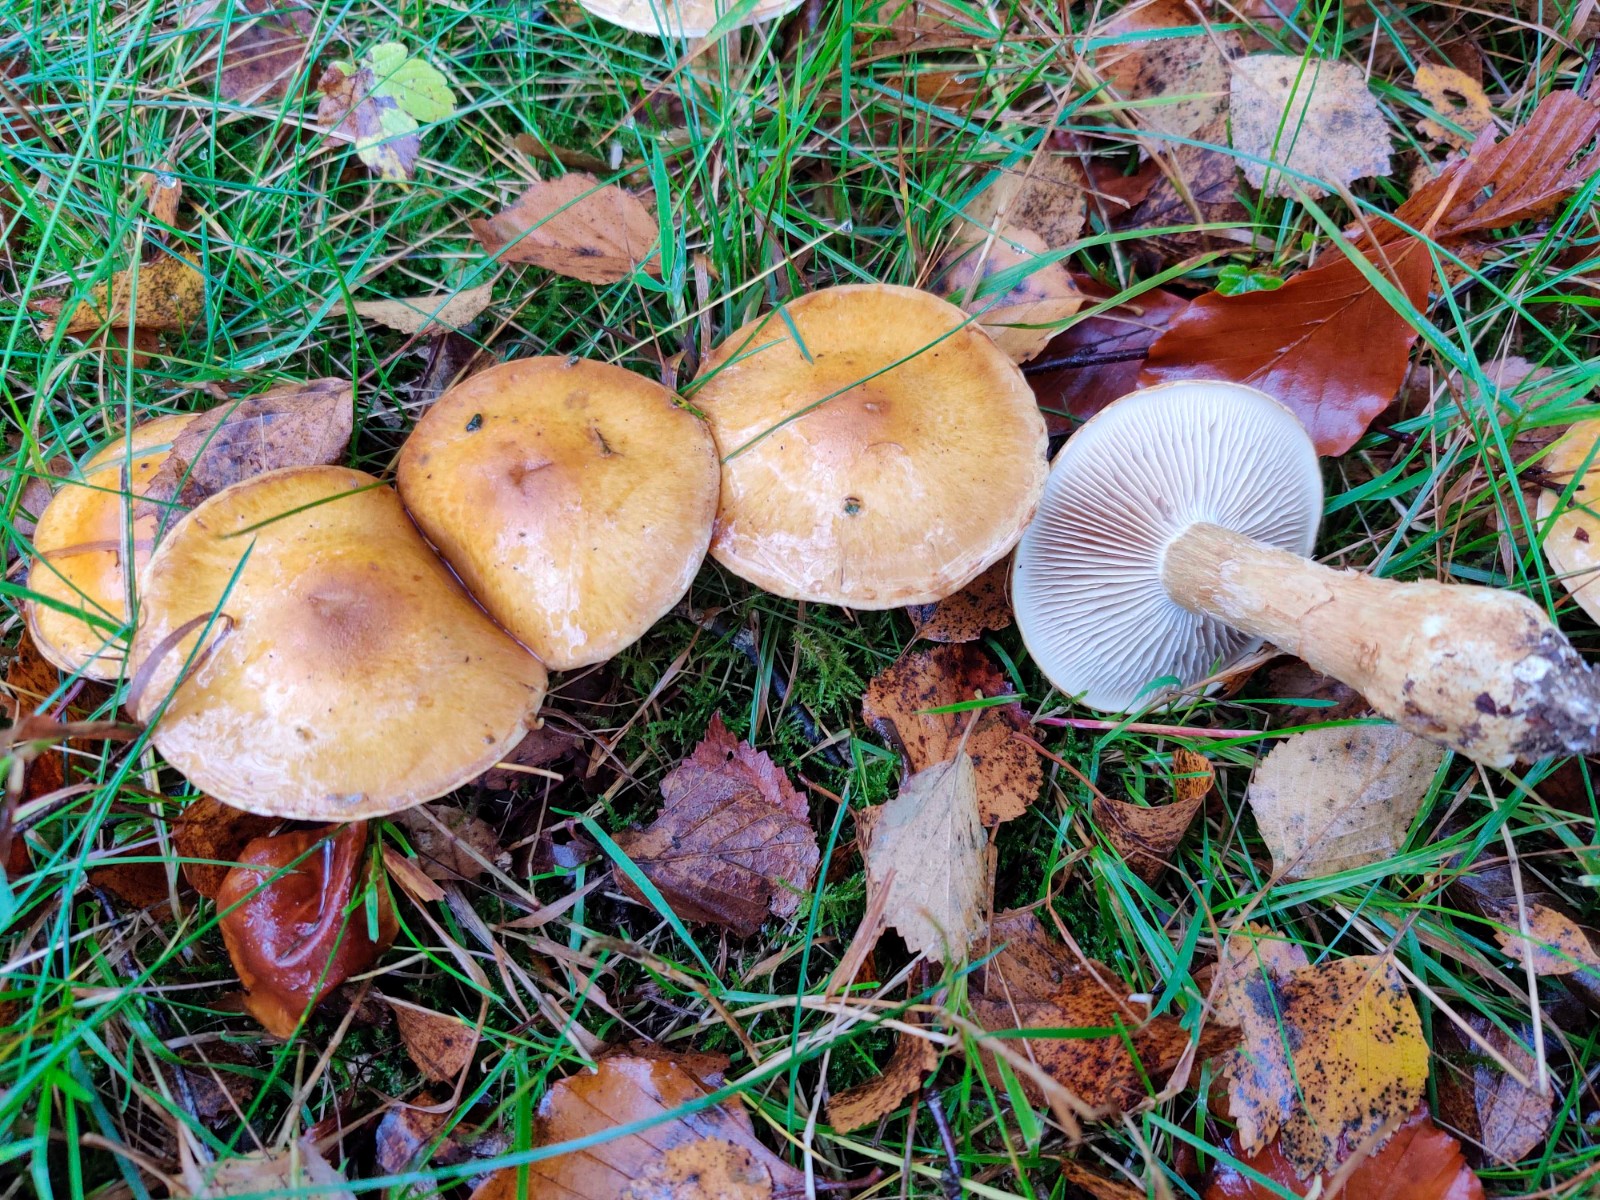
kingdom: Fungi
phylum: Basidiomycota
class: Agaricomycetes
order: Agaricales
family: Cortinariaceae
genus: Phlegmacium
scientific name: Phlegmacium triumphans
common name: gulbæltet slørhat
